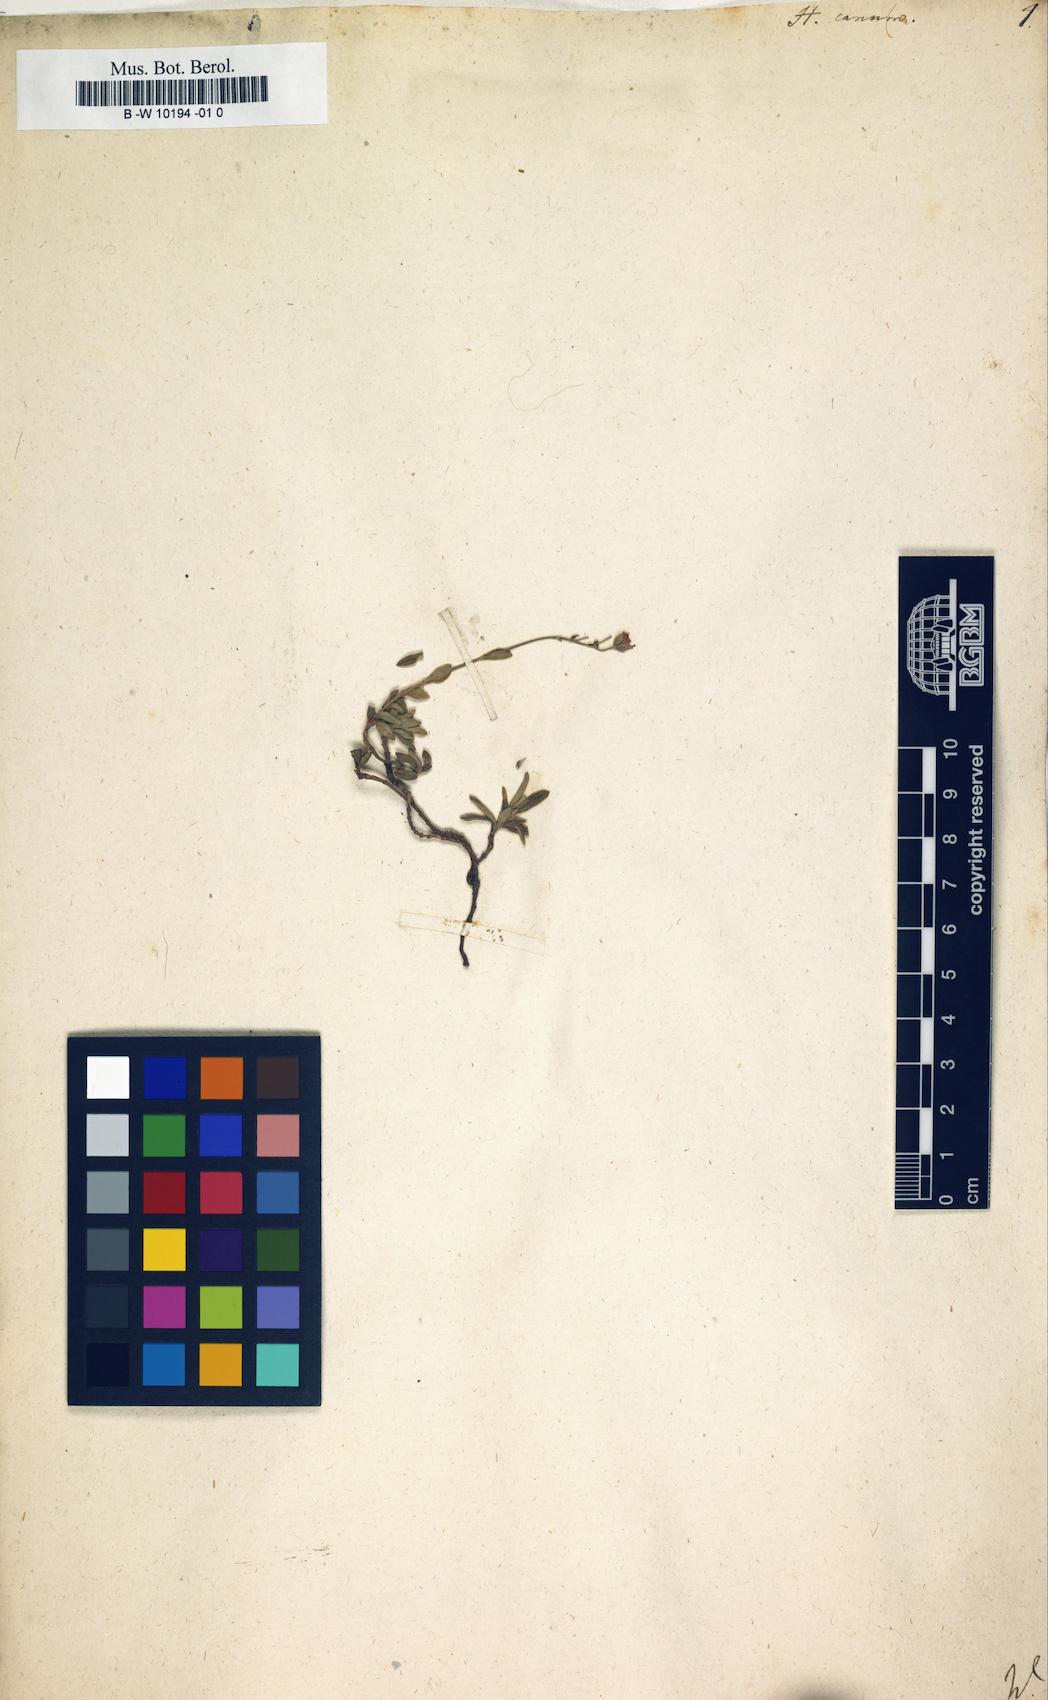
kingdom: Plantae
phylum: Tracheophyta
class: Magnoliopsida
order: Malvales
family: Cistaceae
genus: Helianthemum
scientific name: Helianthemum canum
